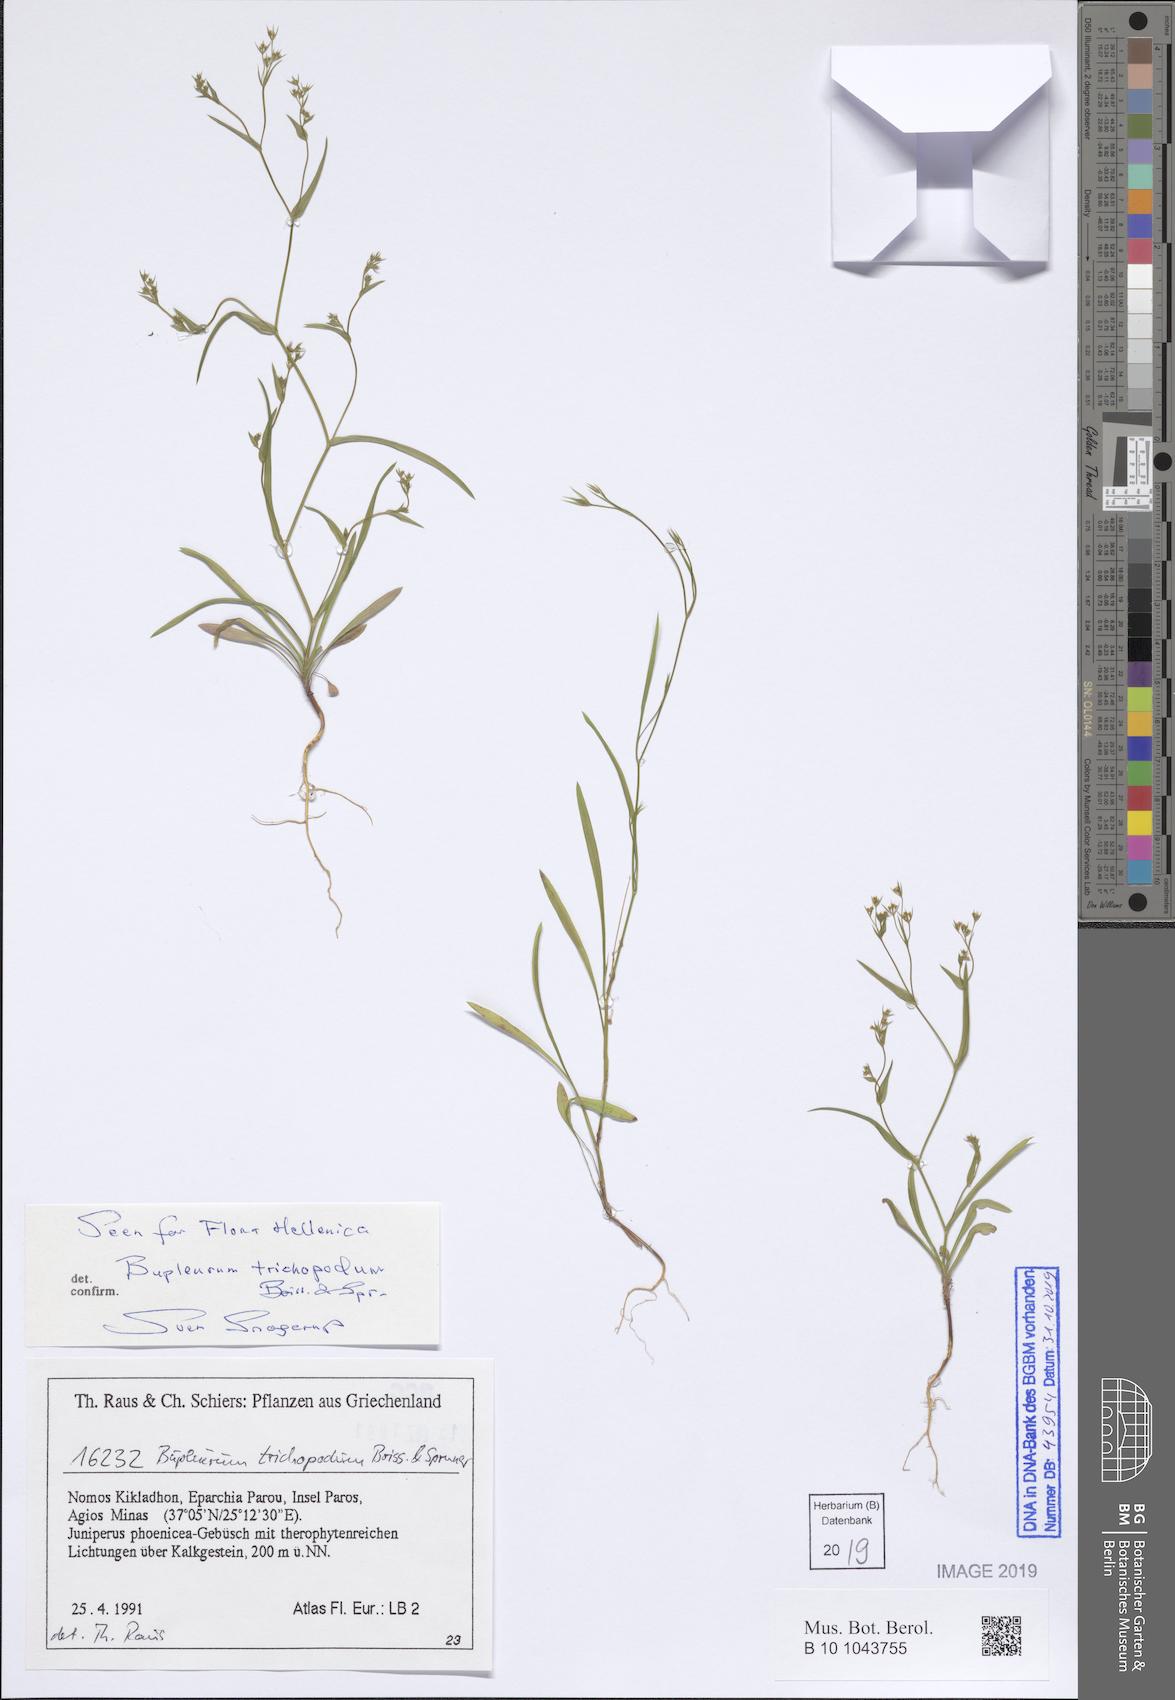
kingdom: Plantae
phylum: Tracheophyta
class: Magnoliopsida
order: Apiales
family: Apiaceae
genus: Bupleurum
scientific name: Bupleurum trichopodum
